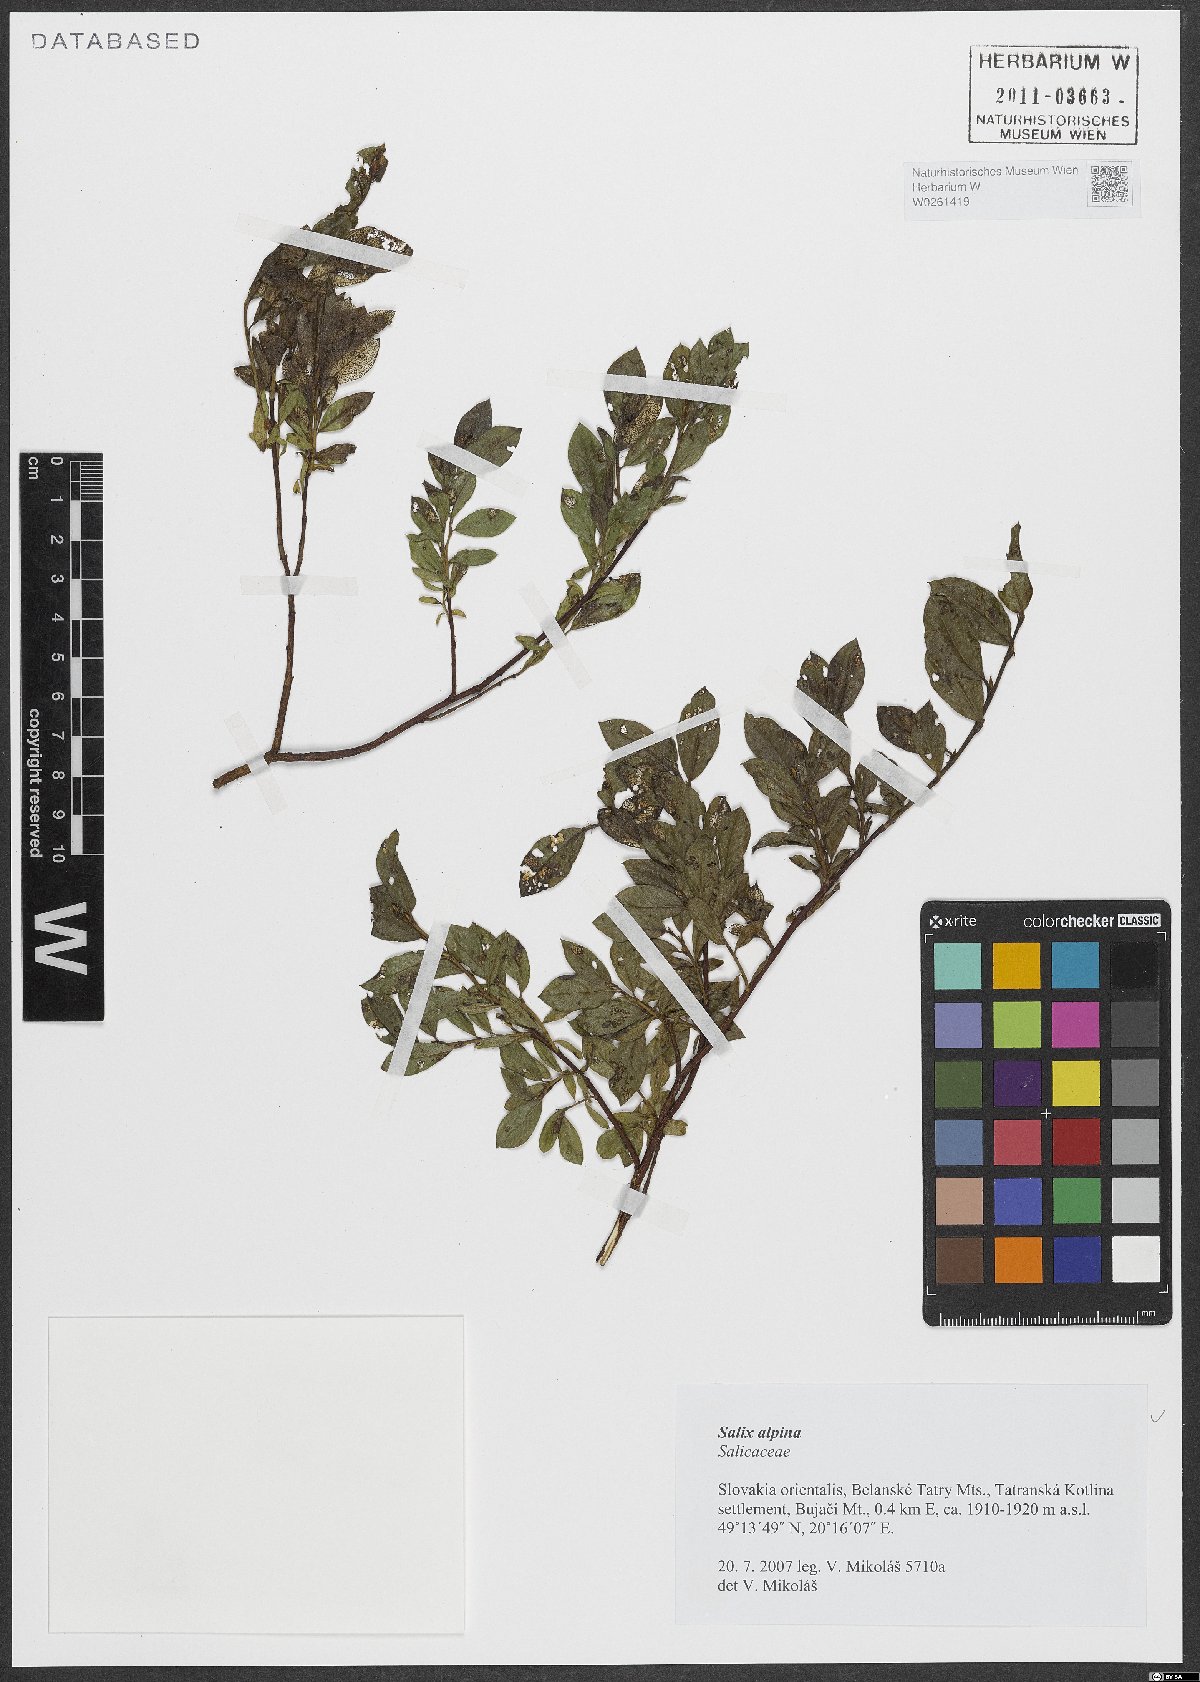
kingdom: Plantae
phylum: Tracheophyta
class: Magnoliopsida
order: Malpighiales
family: Salicaceae
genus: Salix
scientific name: Salix alpina
